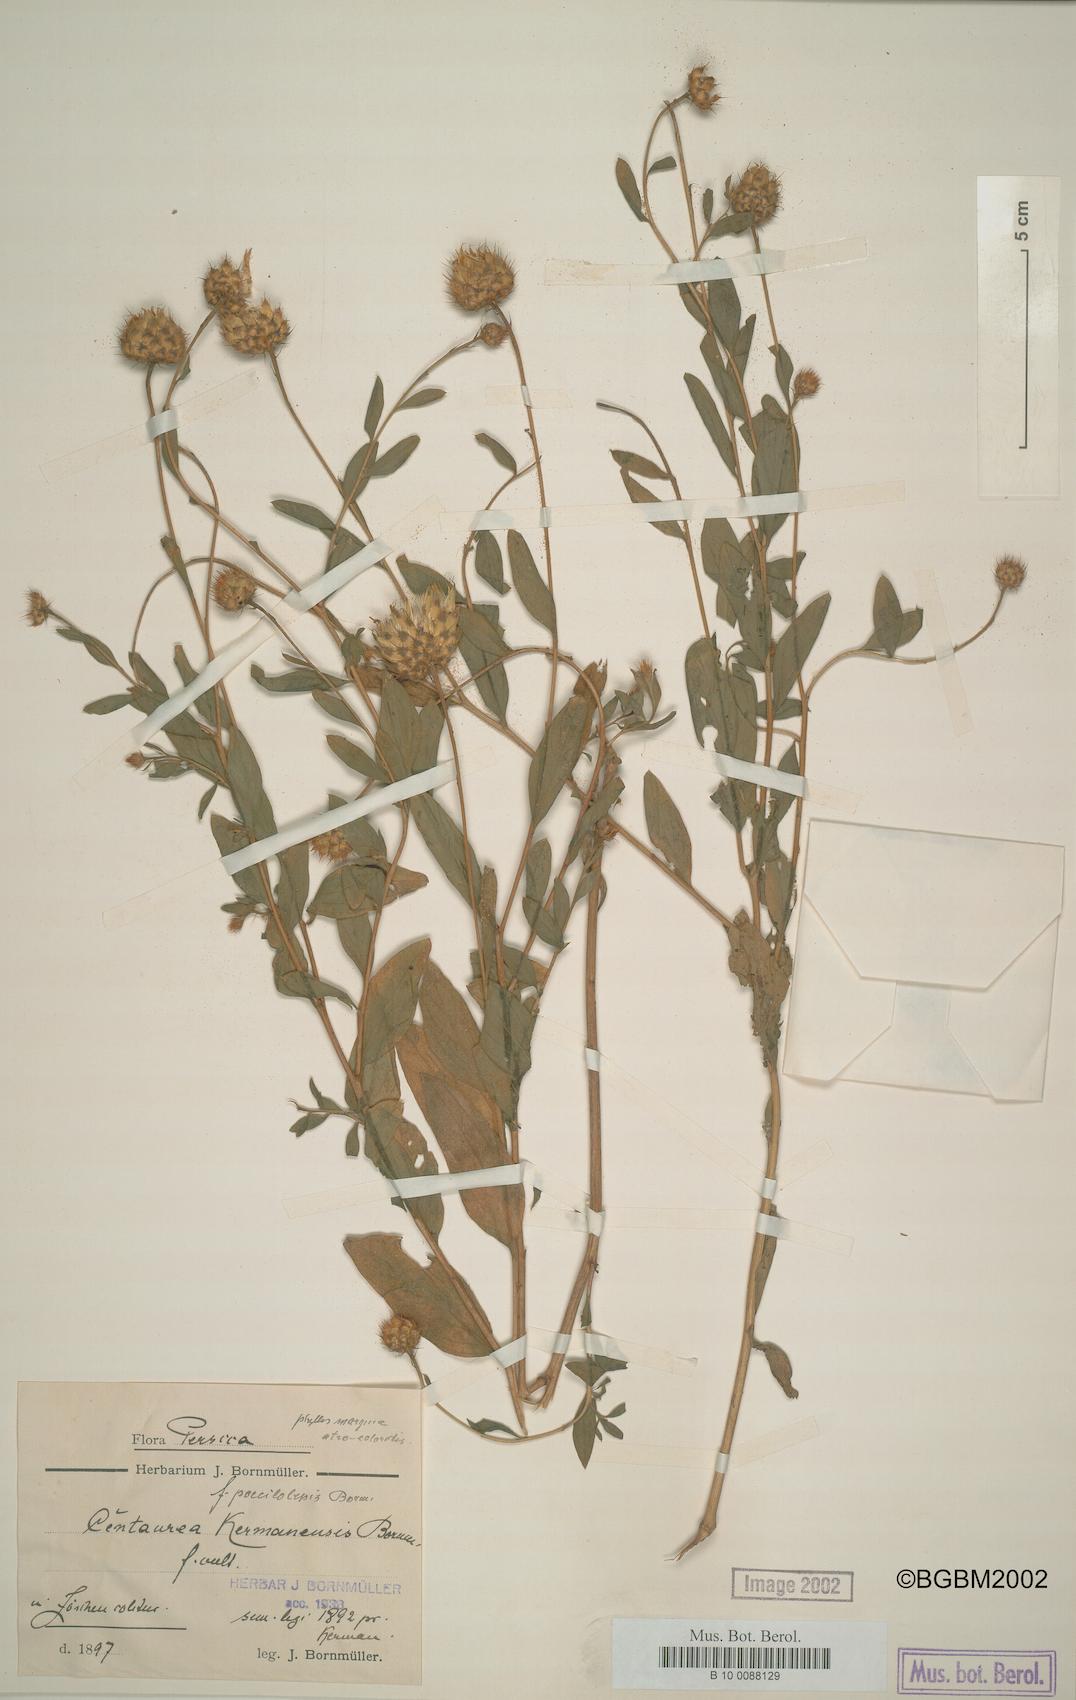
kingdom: Plantae
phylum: Tracheophyta
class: Magnoliopsida
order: Asterales
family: Asteraceae
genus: Stizolophus
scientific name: Stizolophus kermanensis
